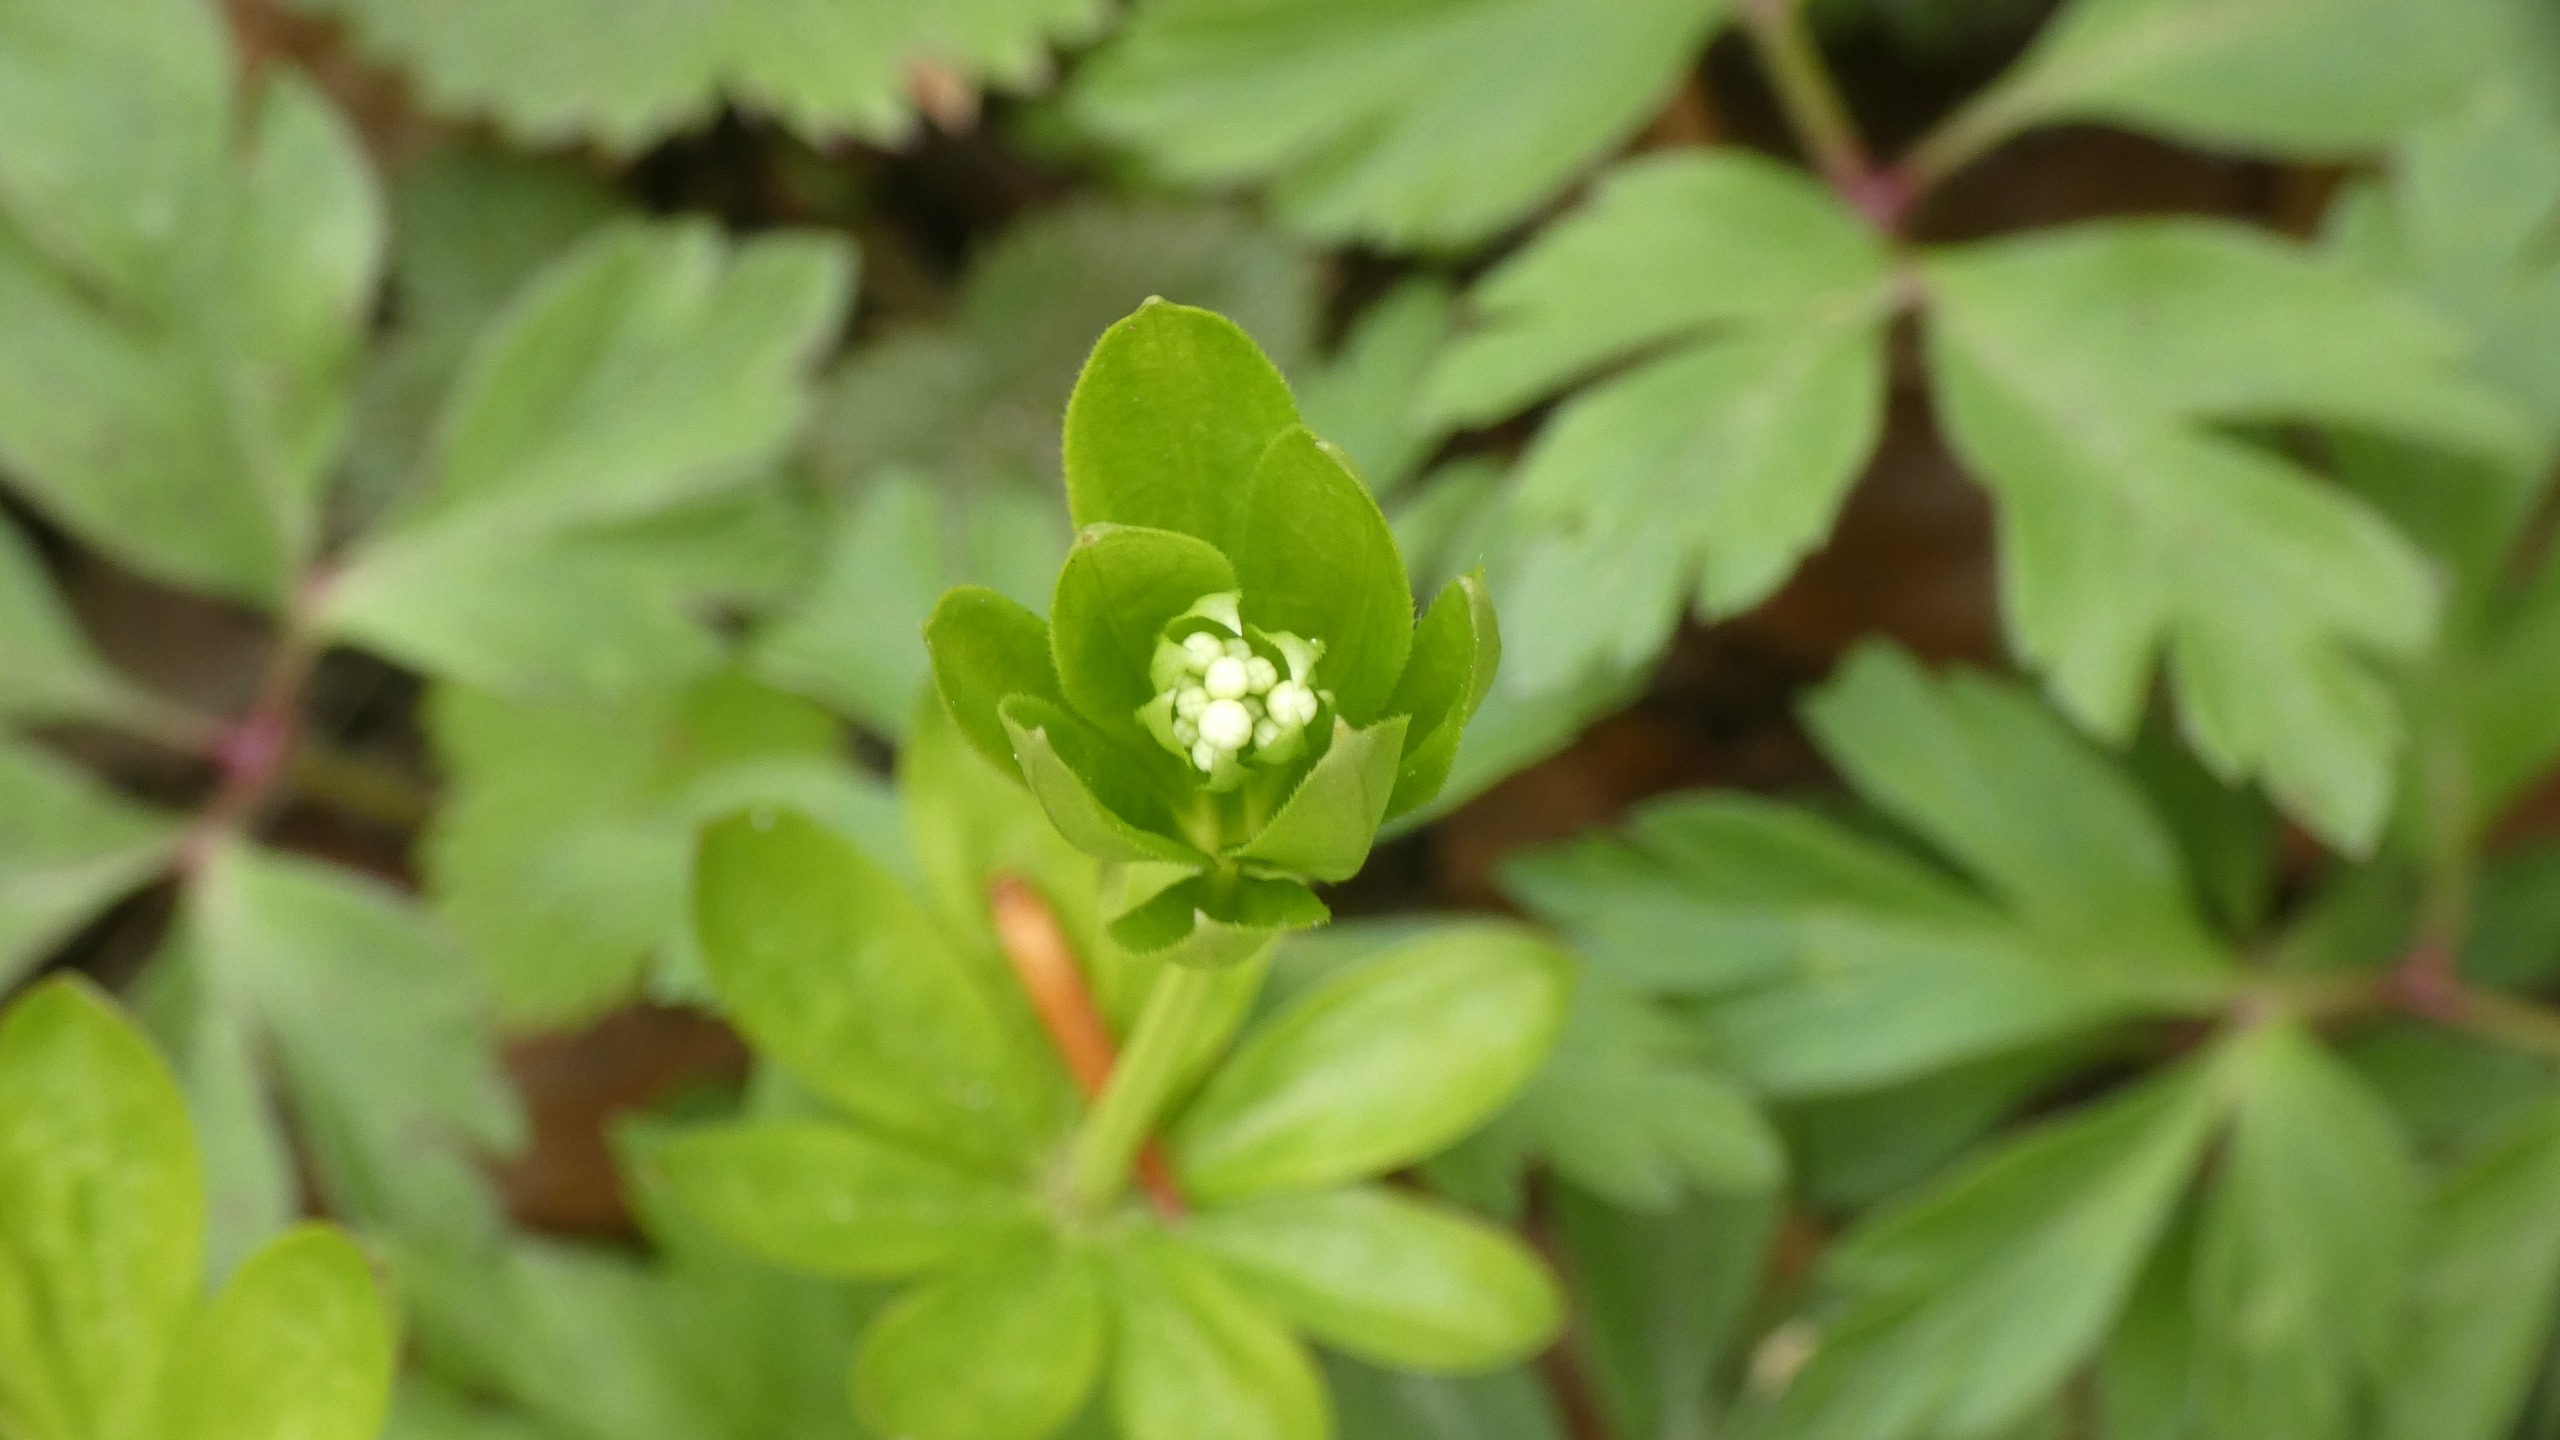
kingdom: Plantae
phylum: Tracheophyta
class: Magnoliopsida
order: Gentianales
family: Rubiaceae
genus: Galium
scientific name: Galium odoratum
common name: Skovmærke
